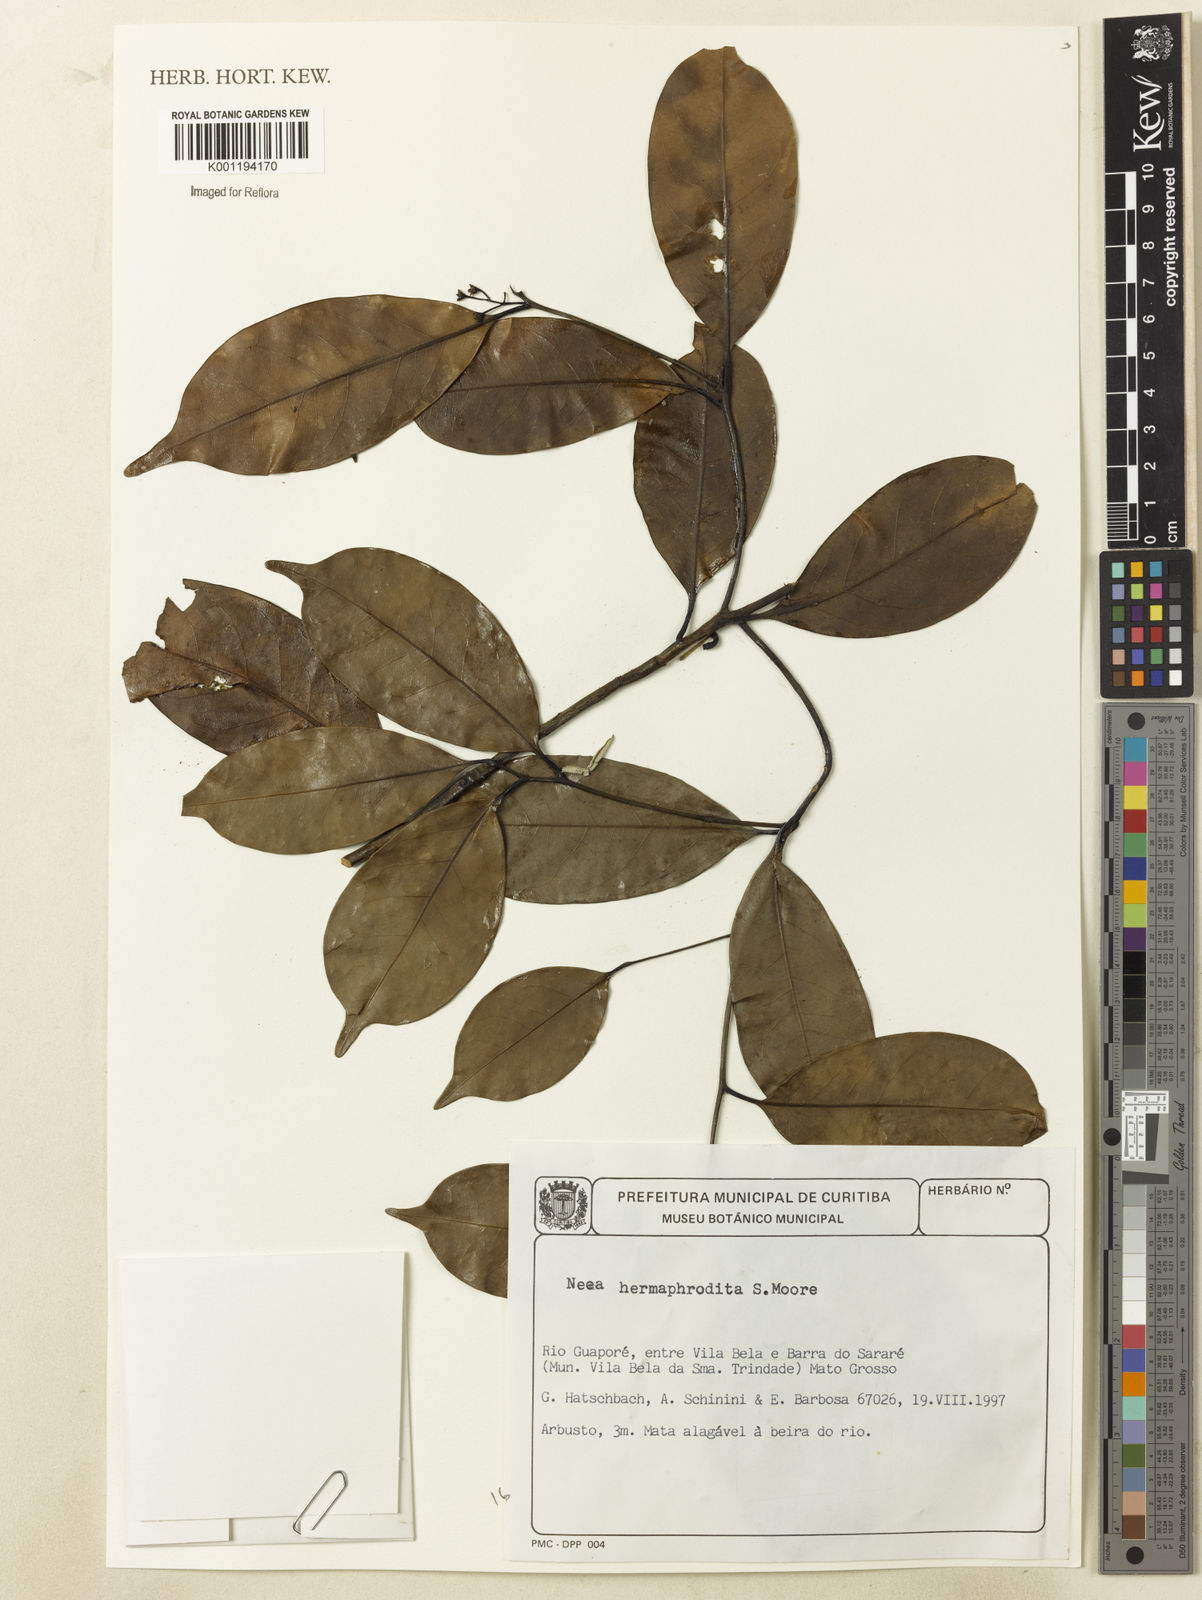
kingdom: Plantae
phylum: Tracheophyta
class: Magnoliopsida
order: Caryophyllales
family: Nyctaginaceae
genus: Neea
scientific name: Neea hermaphrodita
